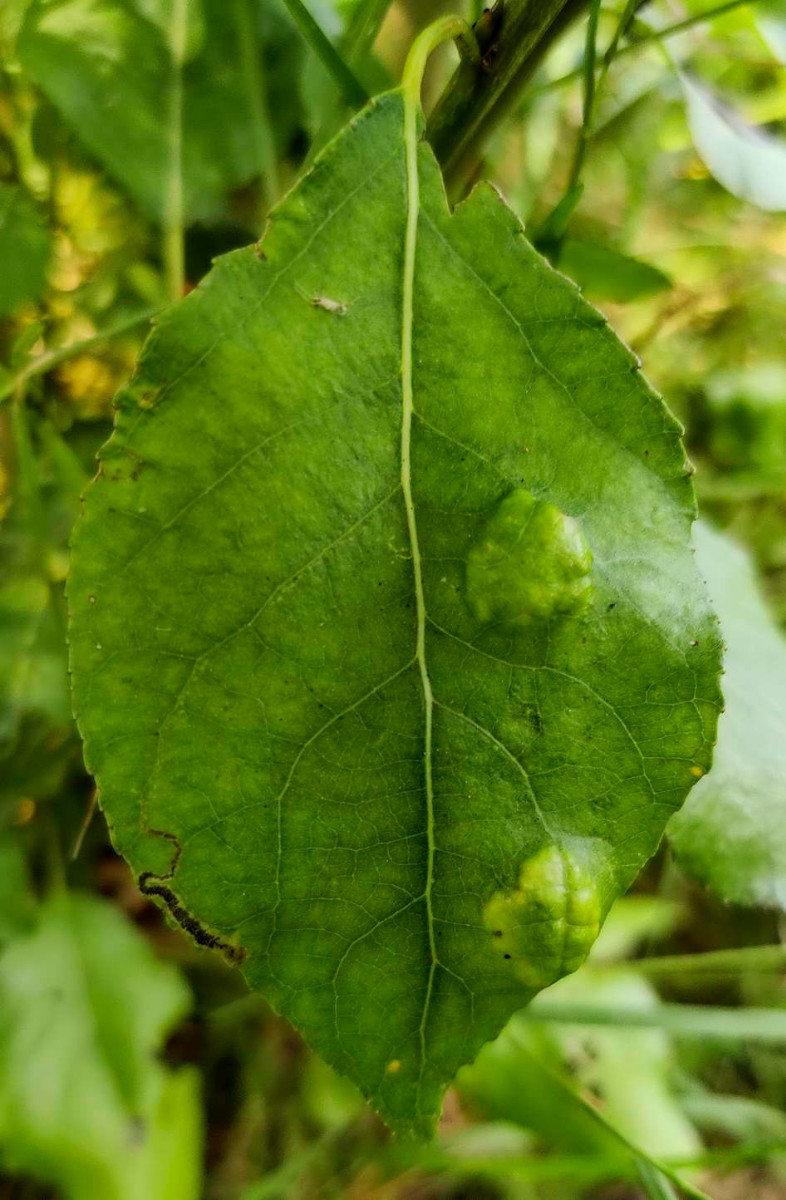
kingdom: Fungi
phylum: Ascomycota
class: Taphrinomycetes
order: Taphrinales
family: Taphrinaceae
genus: Taphrina
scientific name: Taphrina populina
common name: Poplar leaf curl
